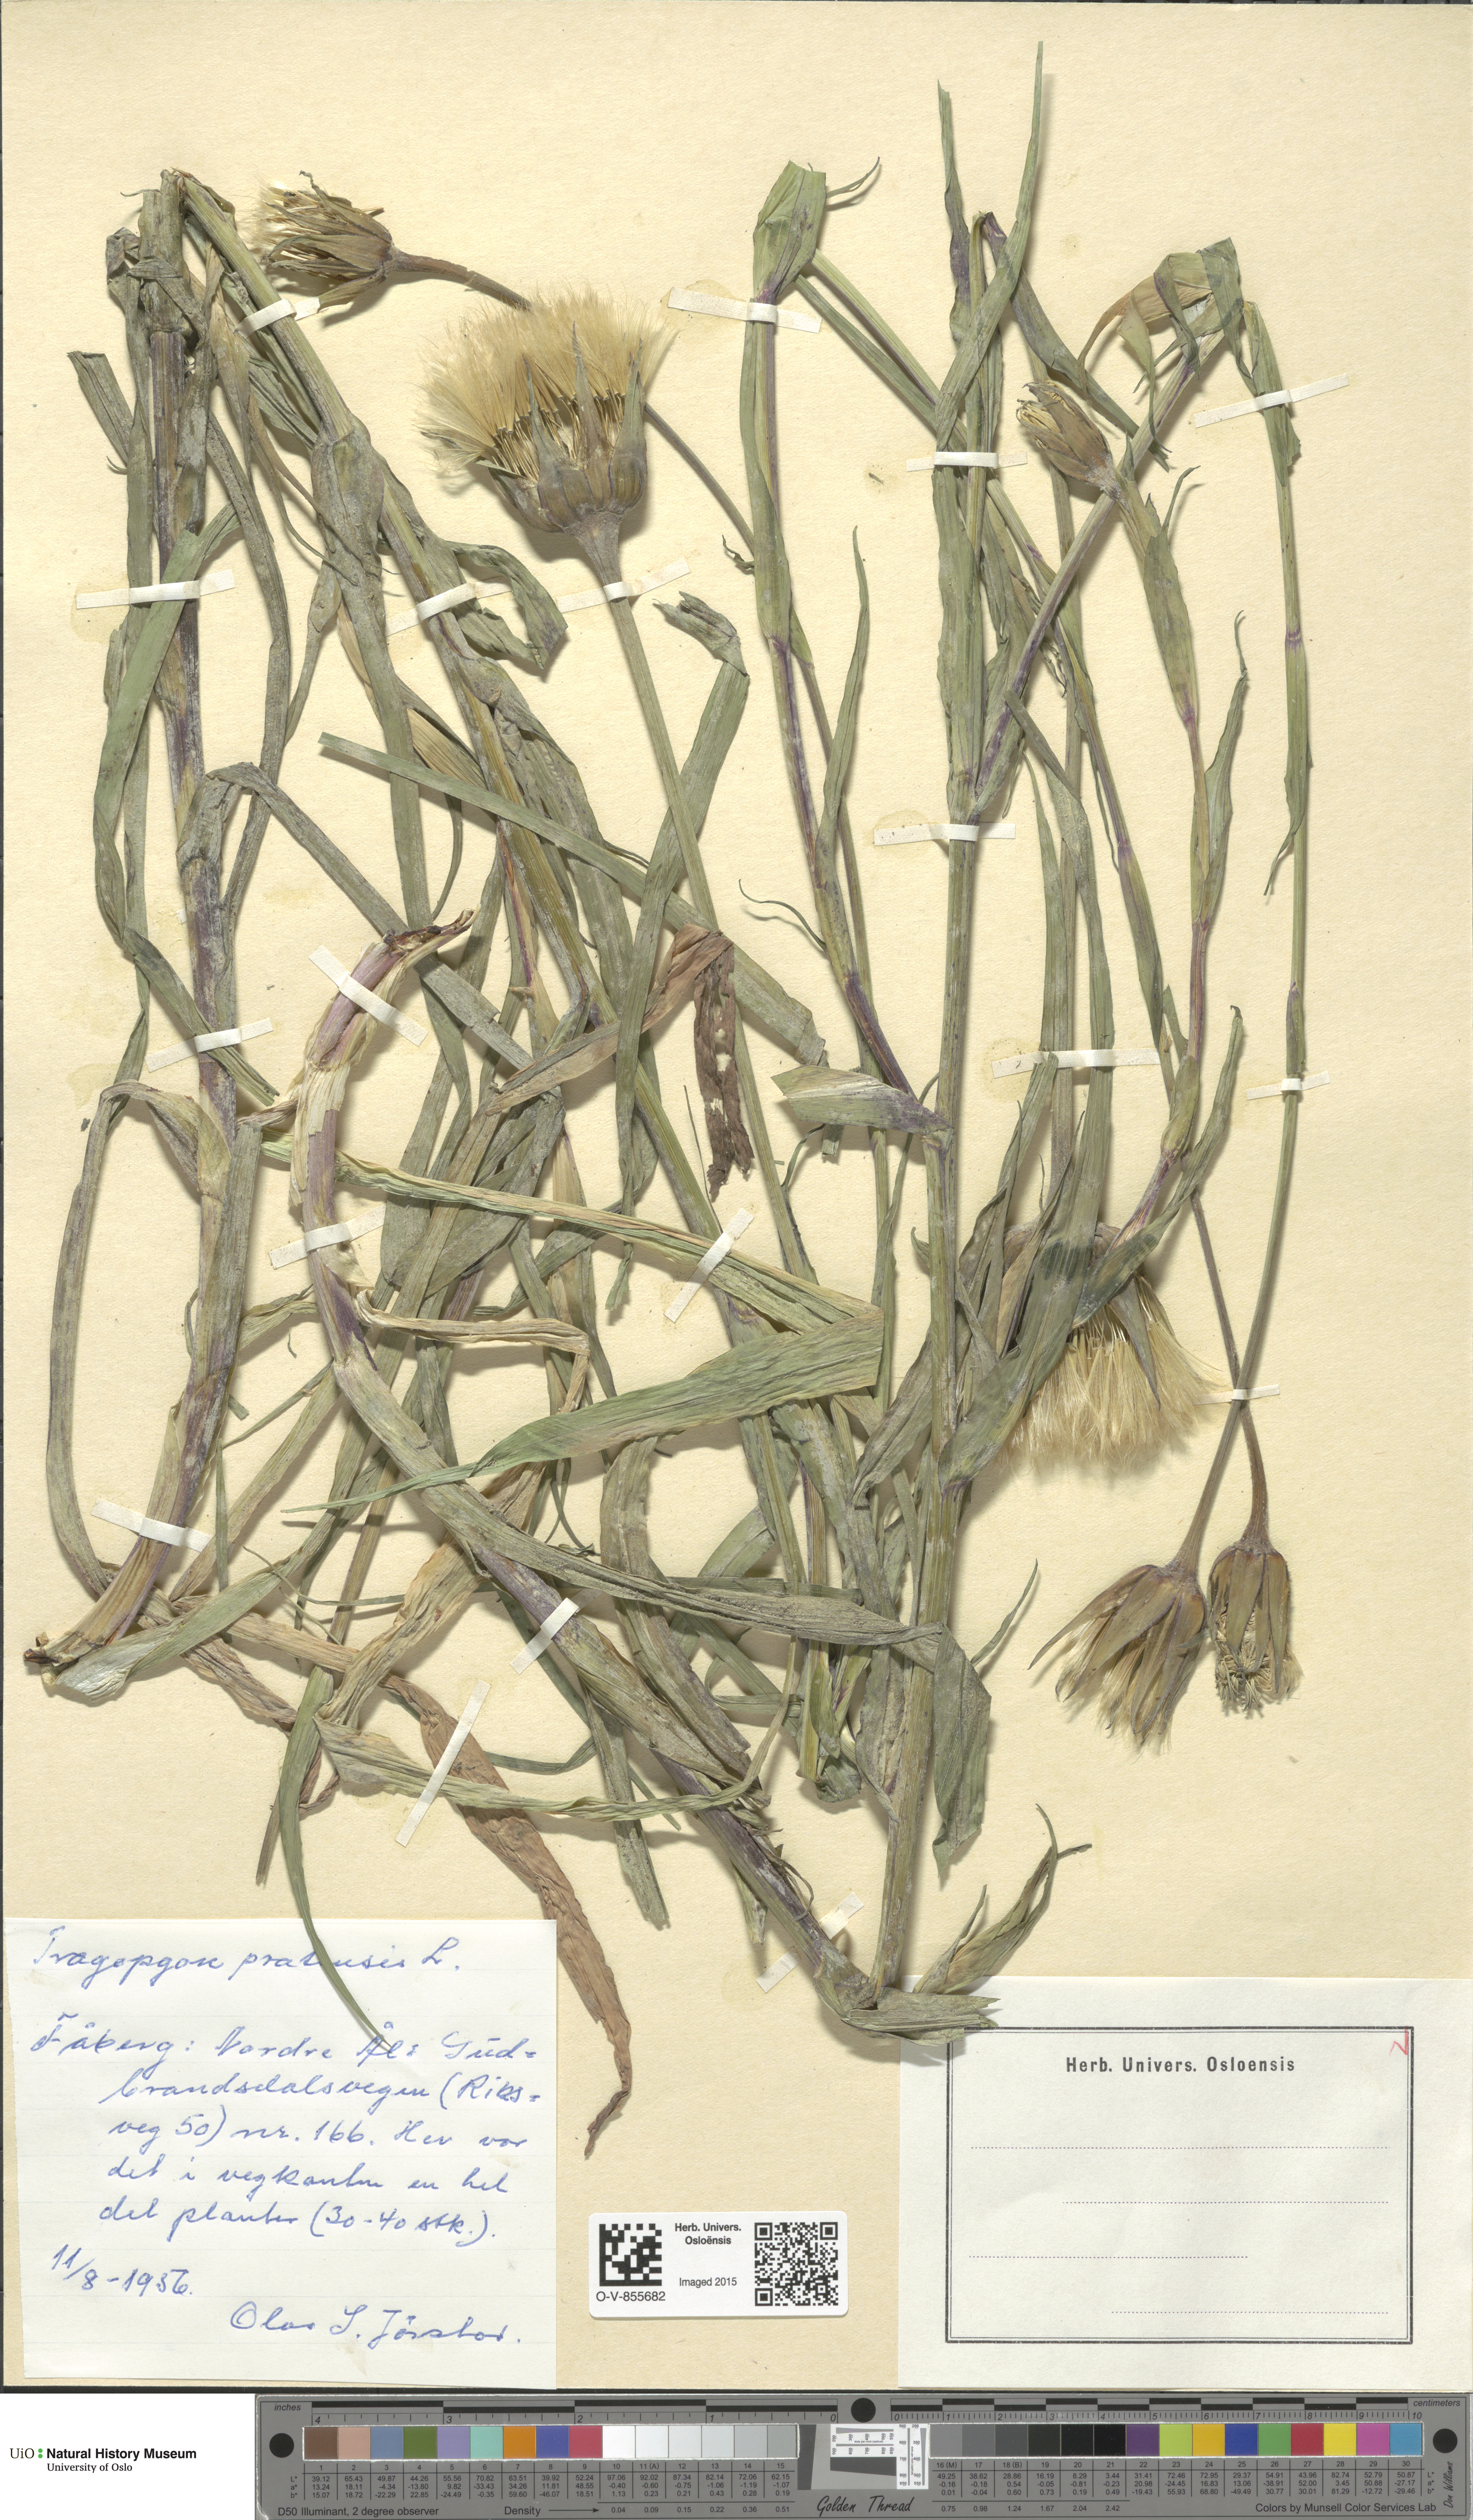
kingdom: Plantae
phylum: Tracheophyta
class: Magnoliopsida
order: Asterales
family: Asteraceae
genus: Tragopogon
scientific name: Tragopogon pratensis
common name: Goat's-beard
